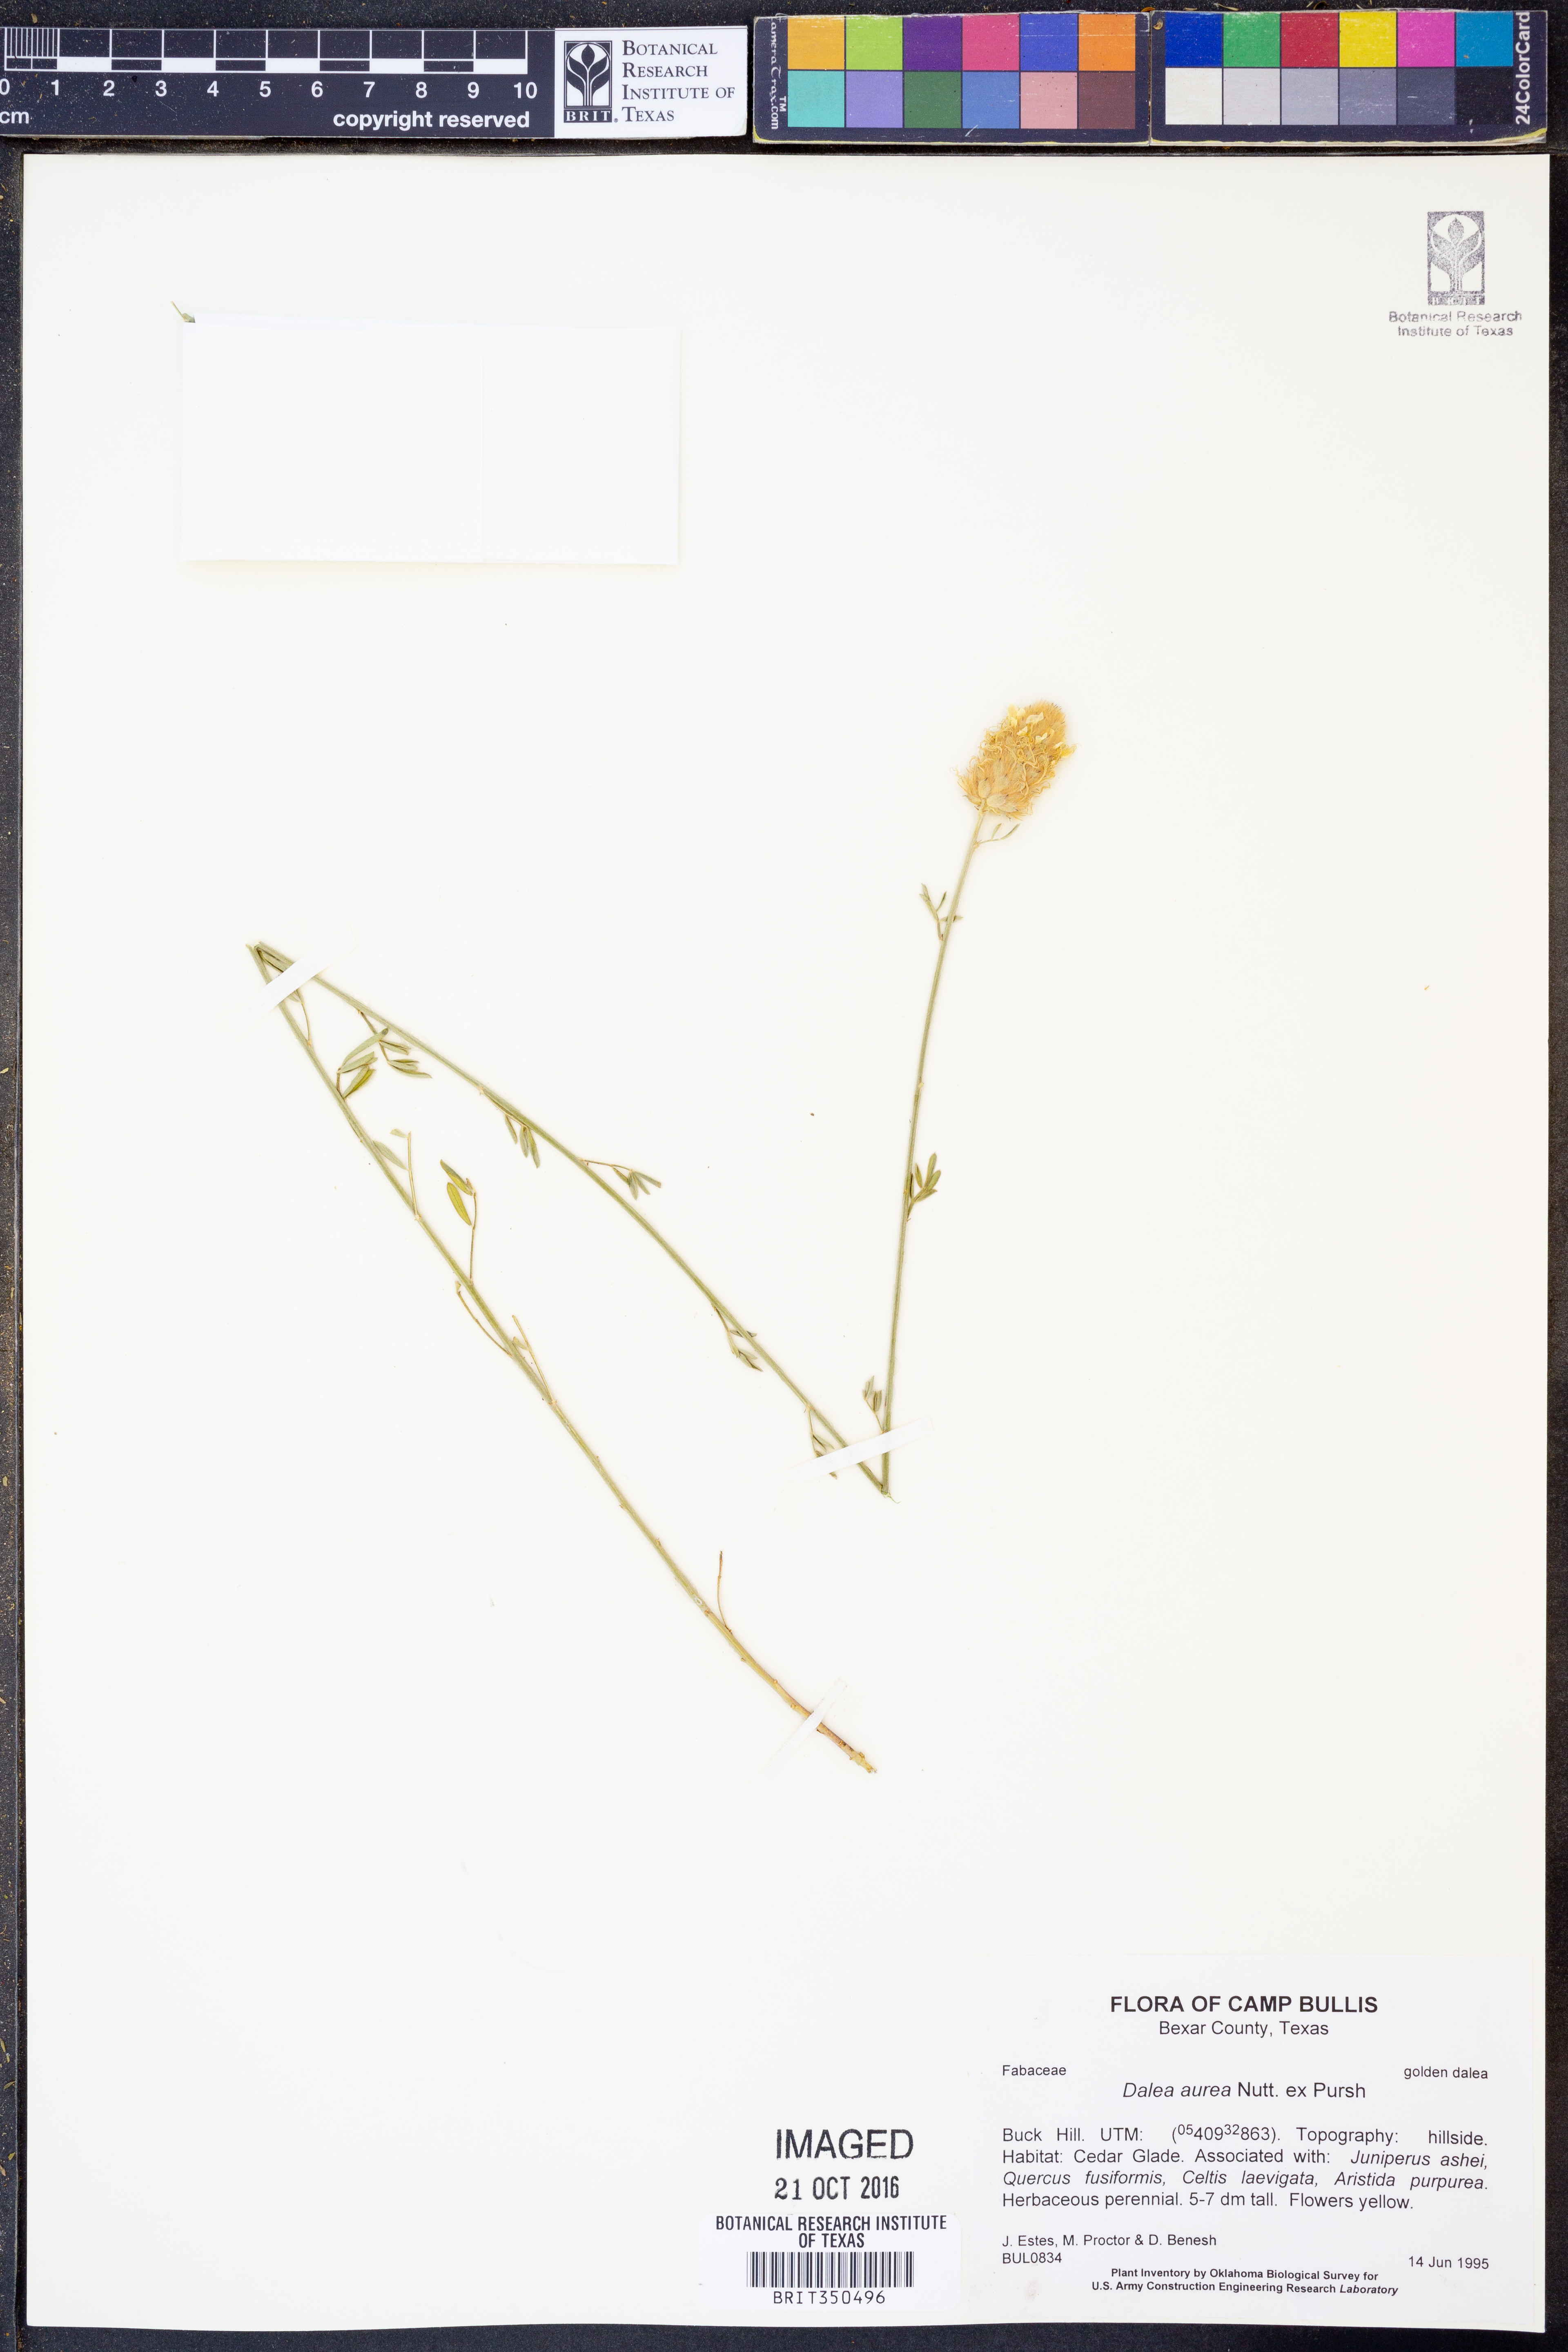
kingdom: Plantae
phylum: Tracheophyta
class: Magnoliopsida
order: Fabales
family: Fabaceae
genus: Dalea
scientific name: Dalea aurea
